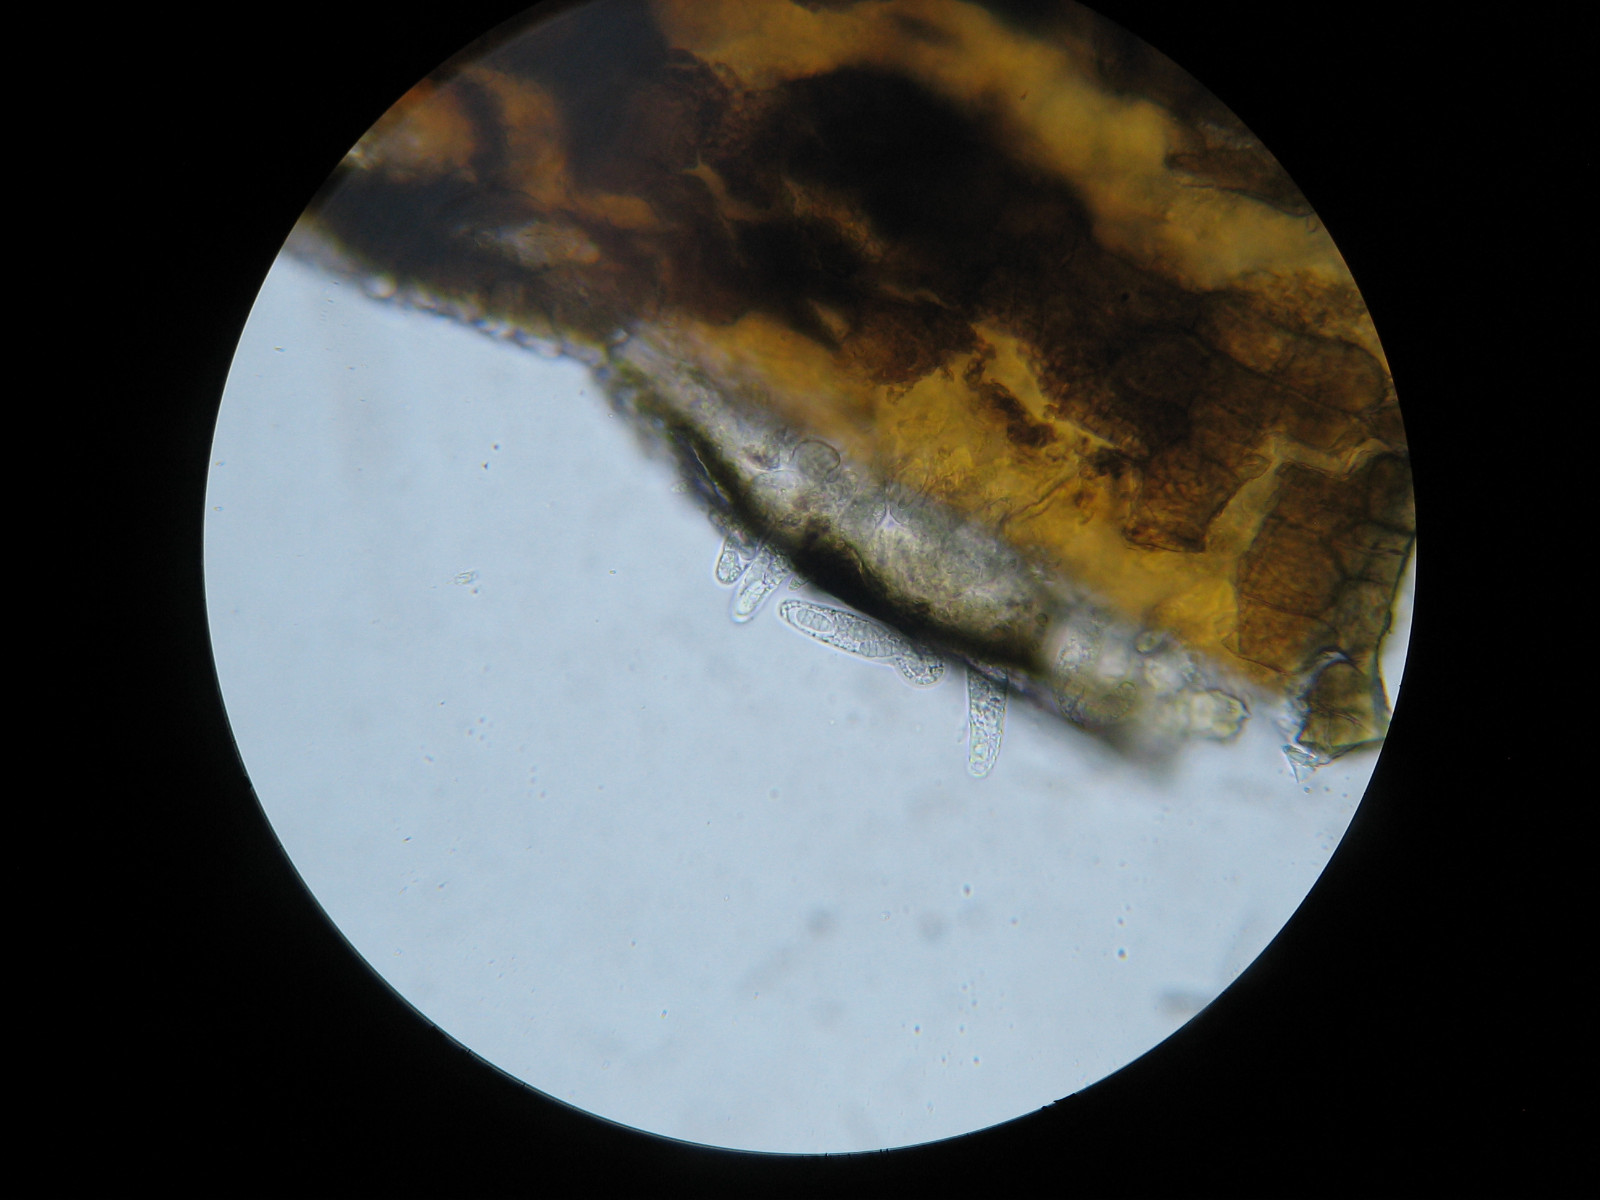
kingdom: Fungi
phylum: Ascomycota
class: Dothideomycetes
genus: Cyrtidula
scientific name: Cyrtidula quercus
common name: ege-barkplet
